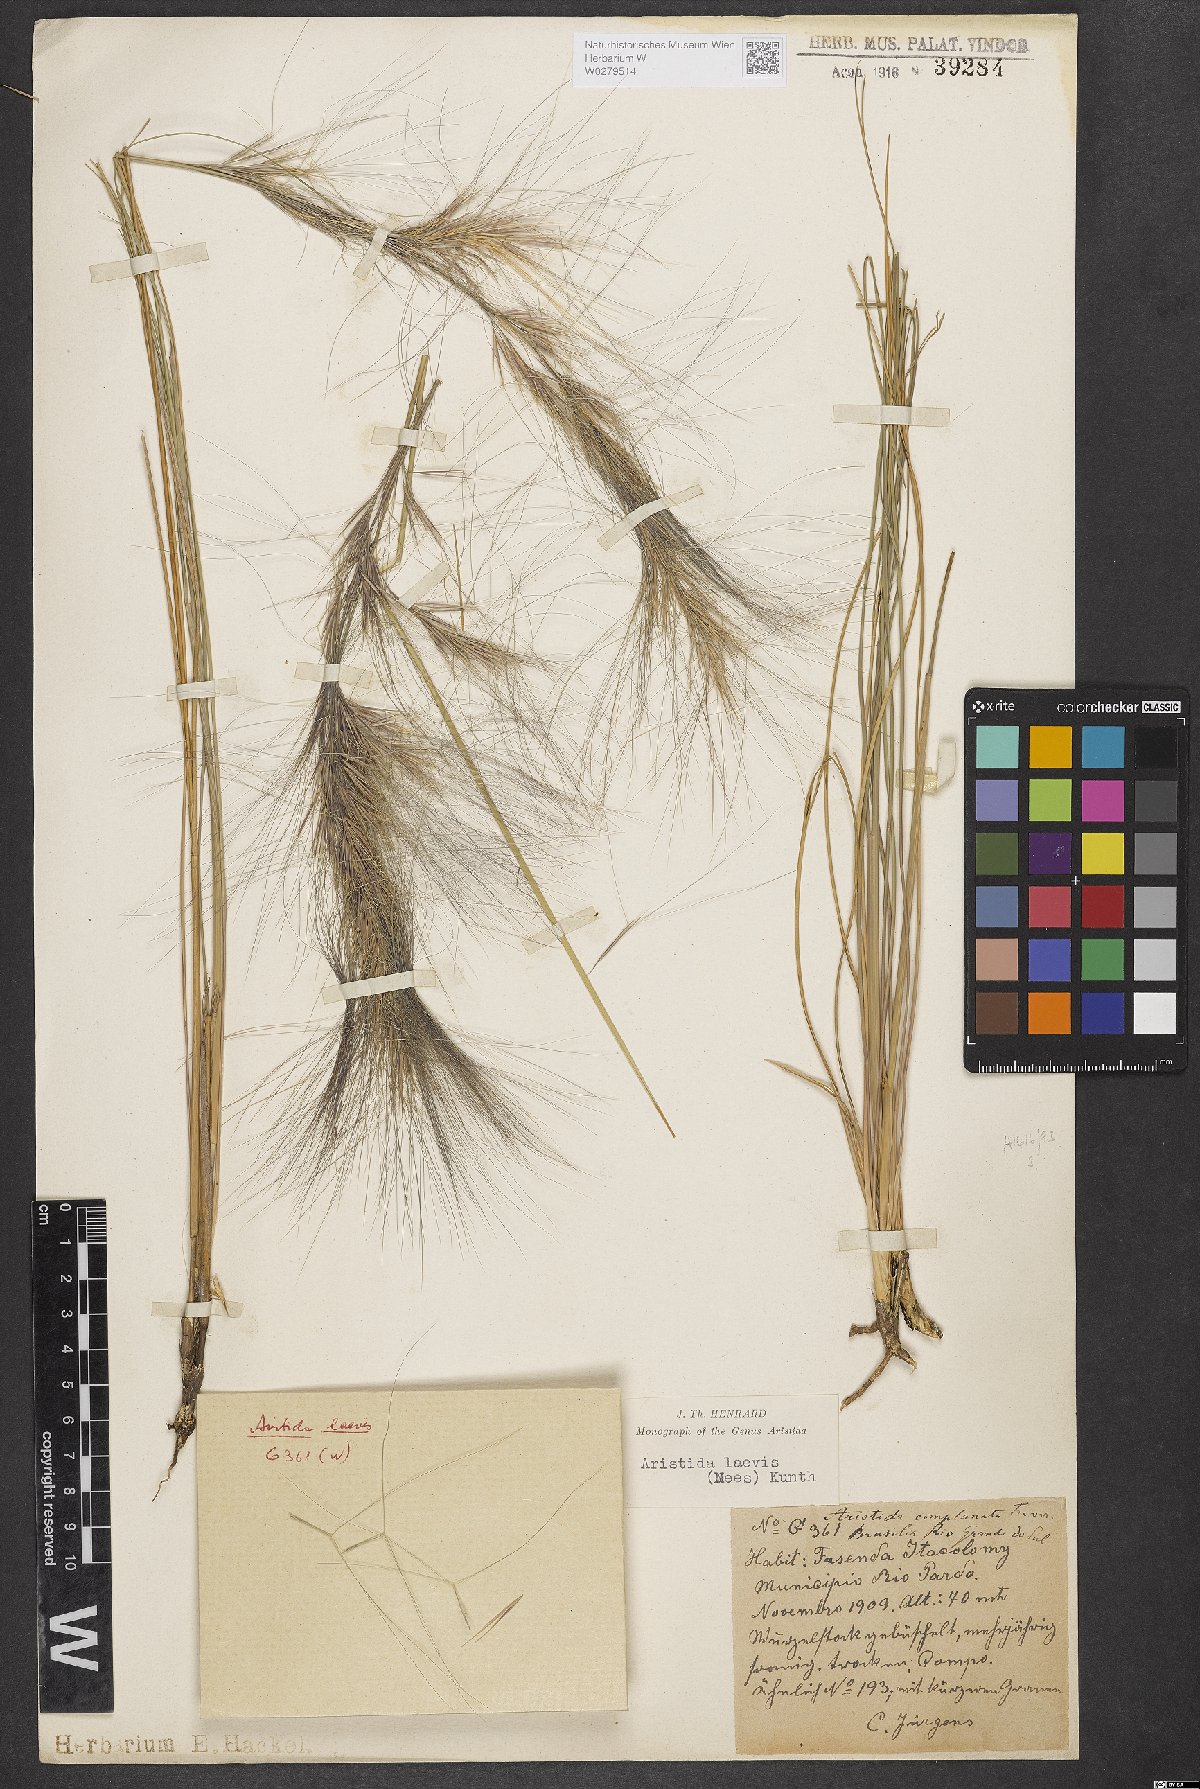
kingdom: Plantae
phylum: Tracheophyta
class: Liliopsida
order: Poales
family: Poaceae
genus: Aristida
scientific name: Aristida pallens
